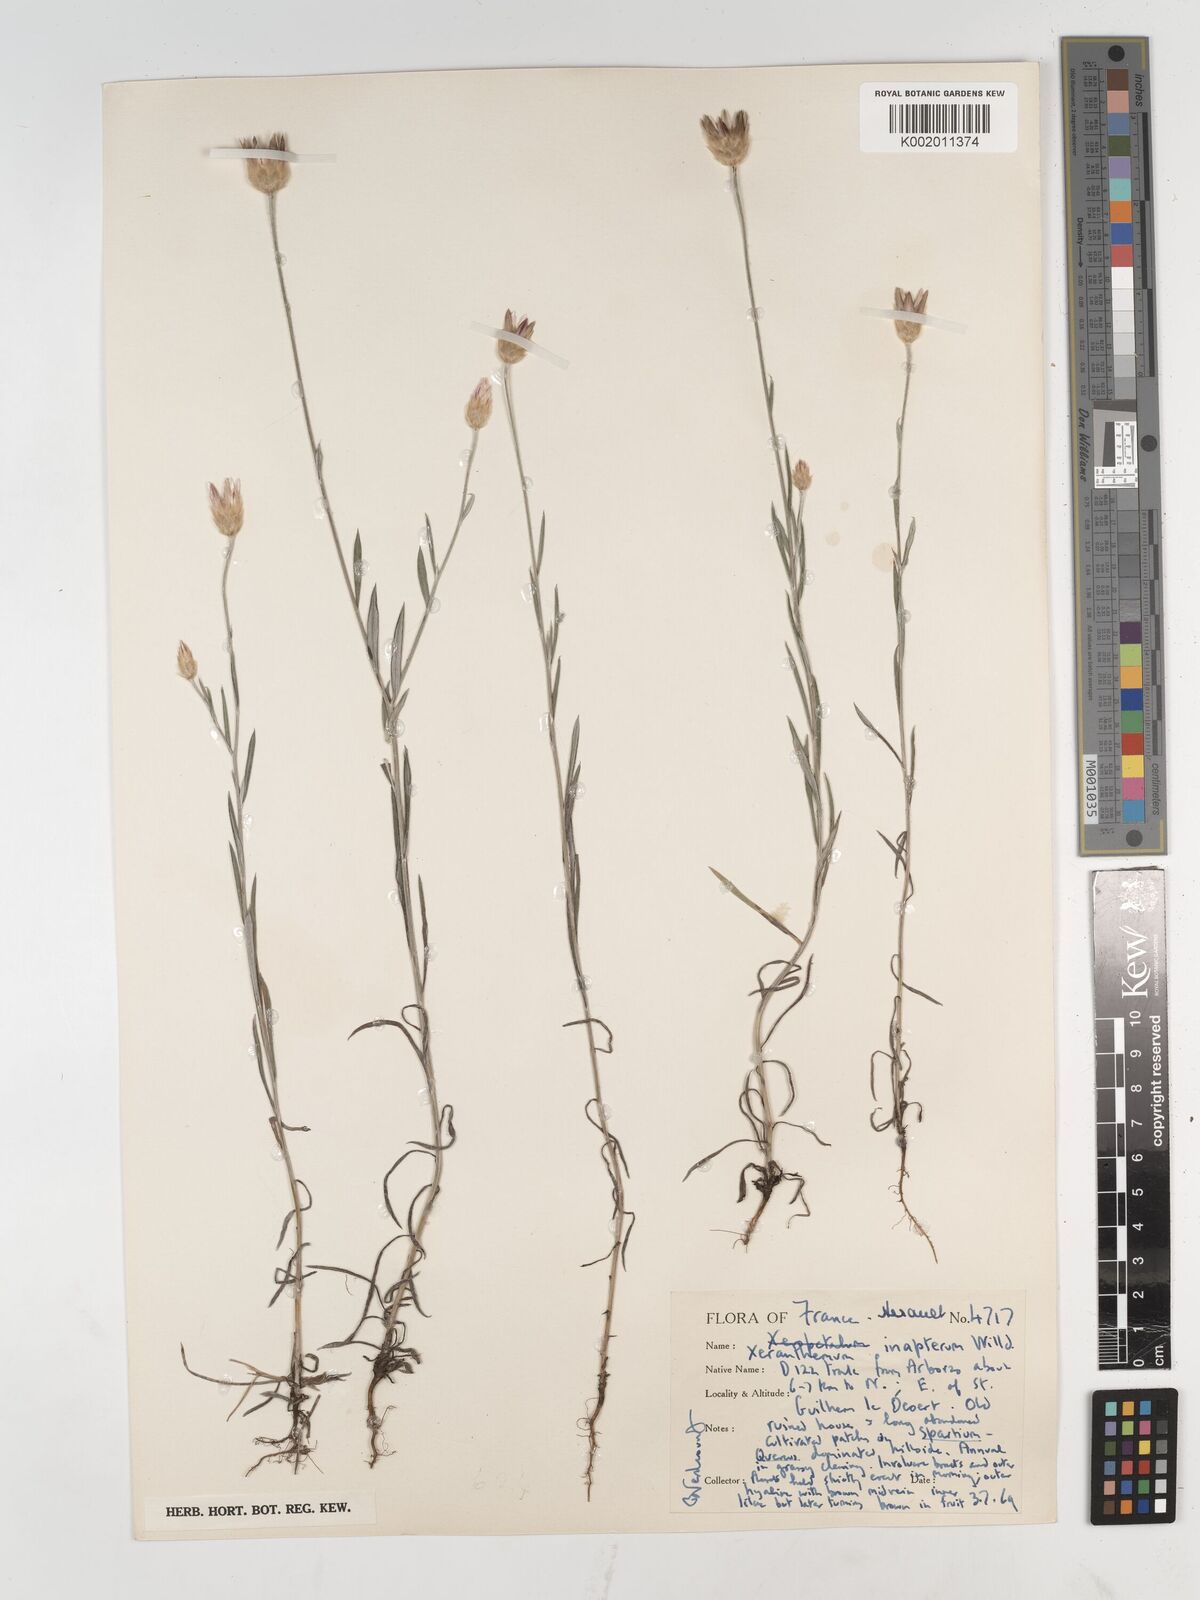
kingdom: Plantae
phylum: Tracheophyta
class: Magnoliopsida
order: Asterales
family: Asteraceae
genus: Xeranthemum
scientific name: Xeranthemum inapertum
